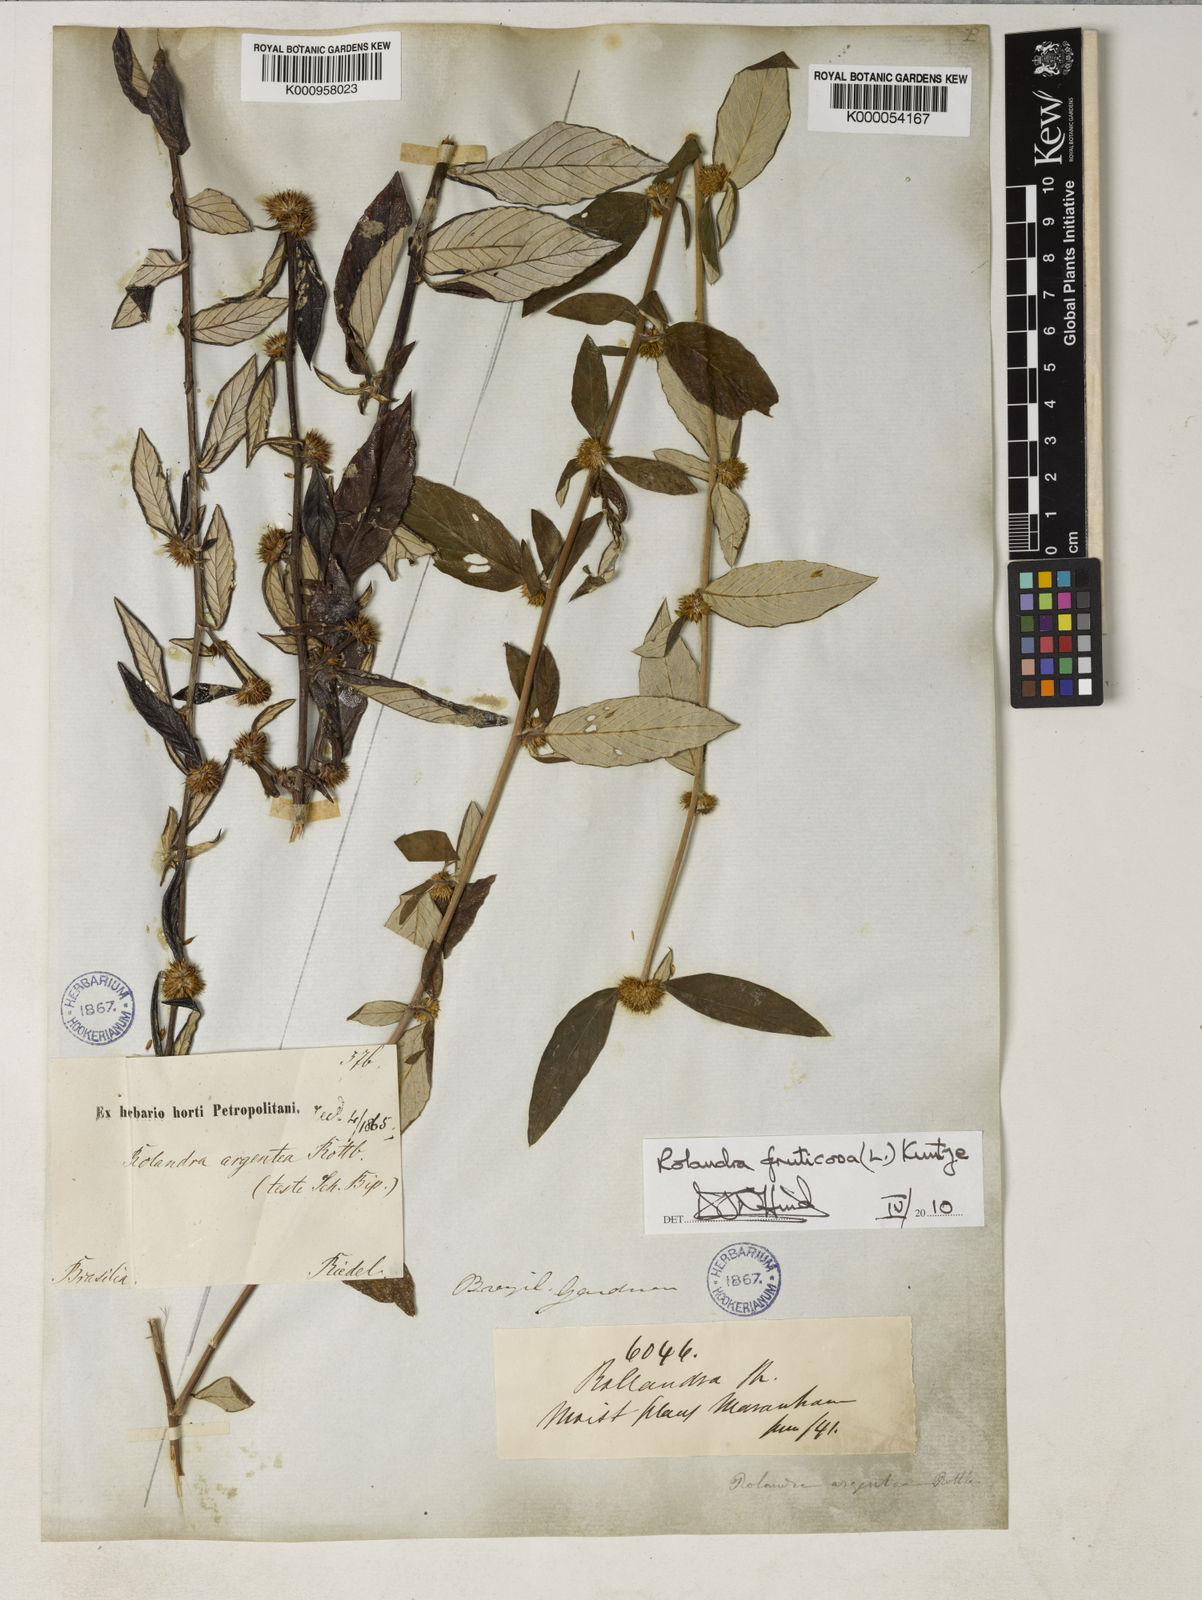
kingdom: Plantae
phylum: Tracheophyta
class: Magnoliopsida
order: Asterales
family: Asteraceae
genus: Rolandra
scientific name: Rolandra fruticosa
